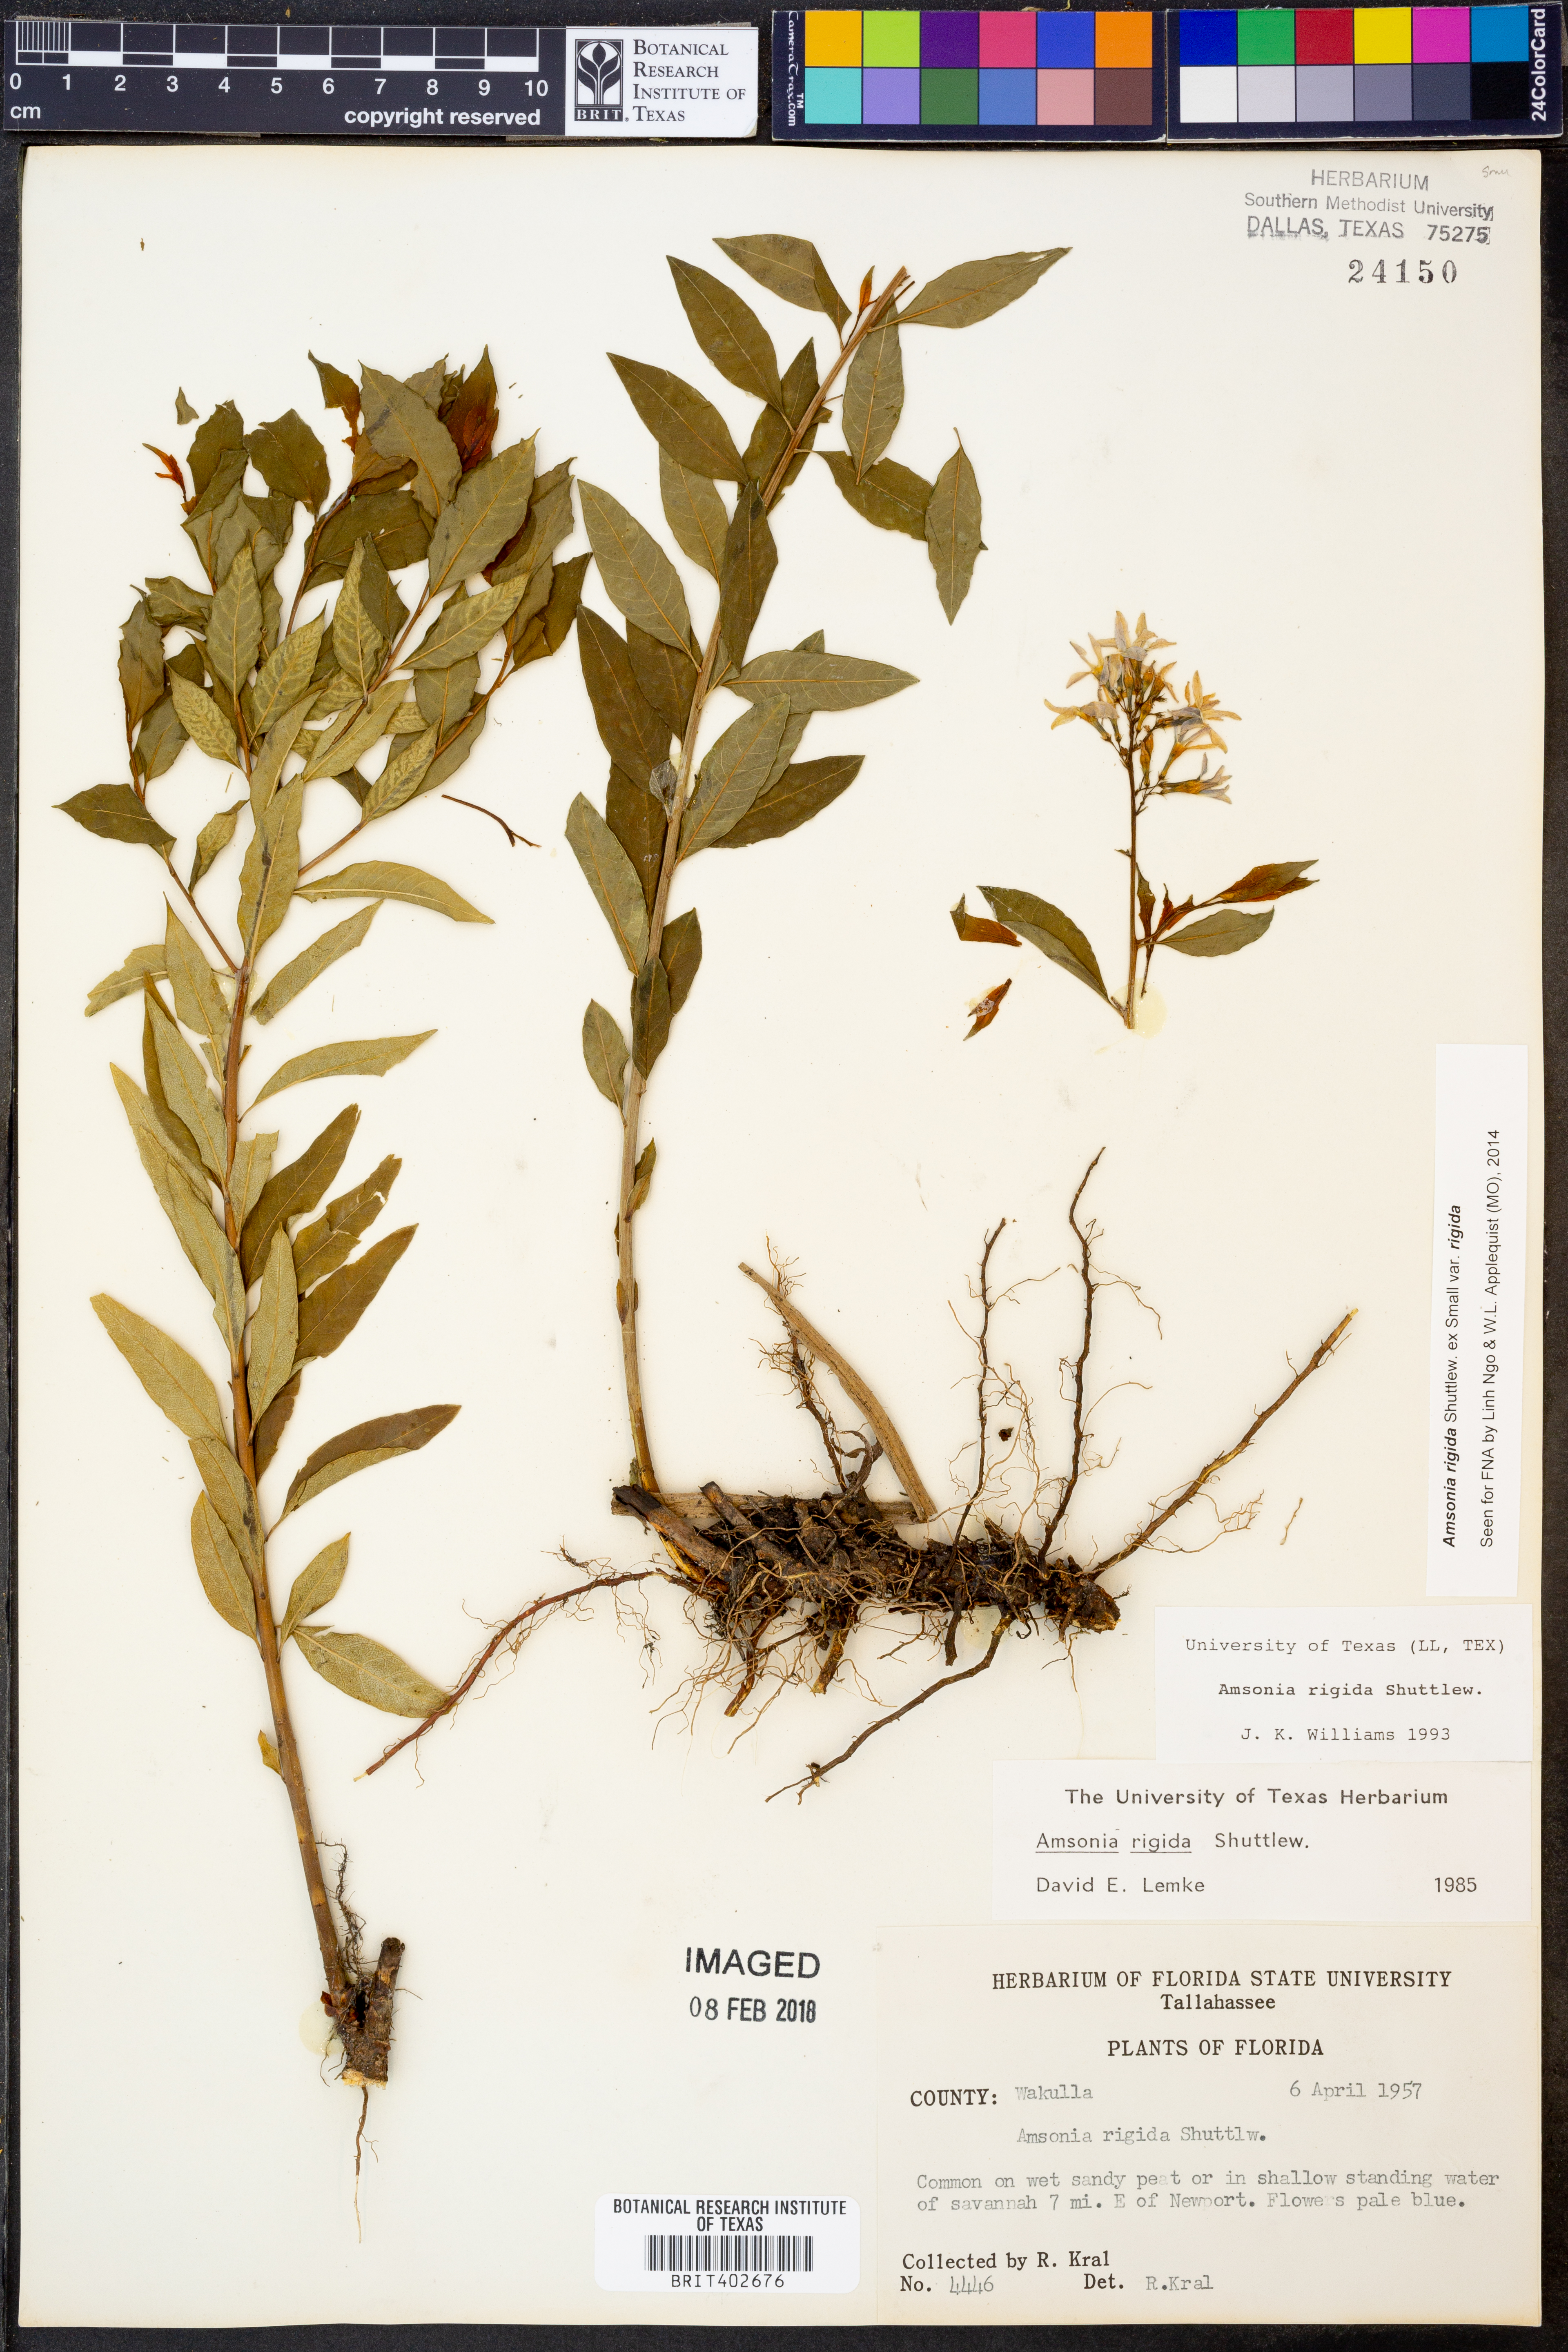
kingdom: Plantae
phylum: Tracheophyta
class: Magnoliopsida
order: Gentianales
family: Apocynaceae
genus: Amsonia
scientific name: Amsonia rigida
